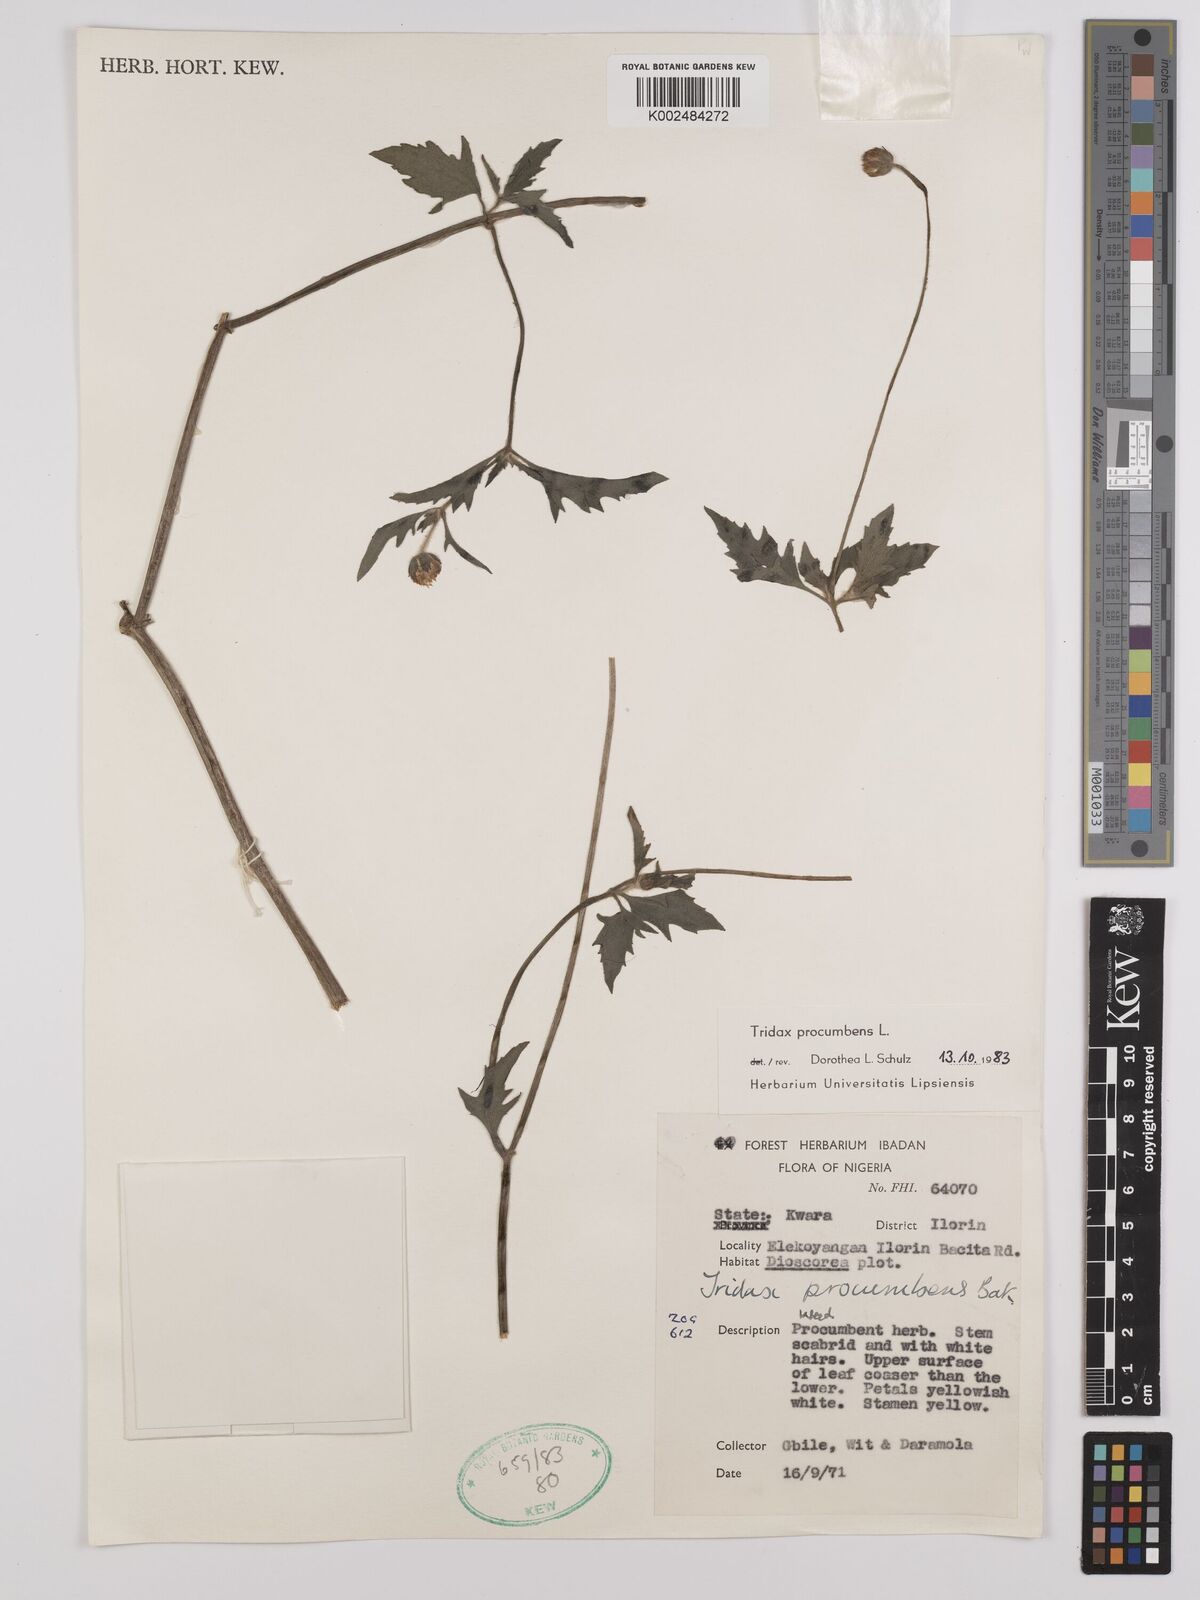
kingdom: Plantae
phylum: Tracheophyta
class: Magnoliopsida
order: Asterales
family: Asteraceae
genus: Tridax
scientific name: Tridax procumbens
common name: Coatbuttons
